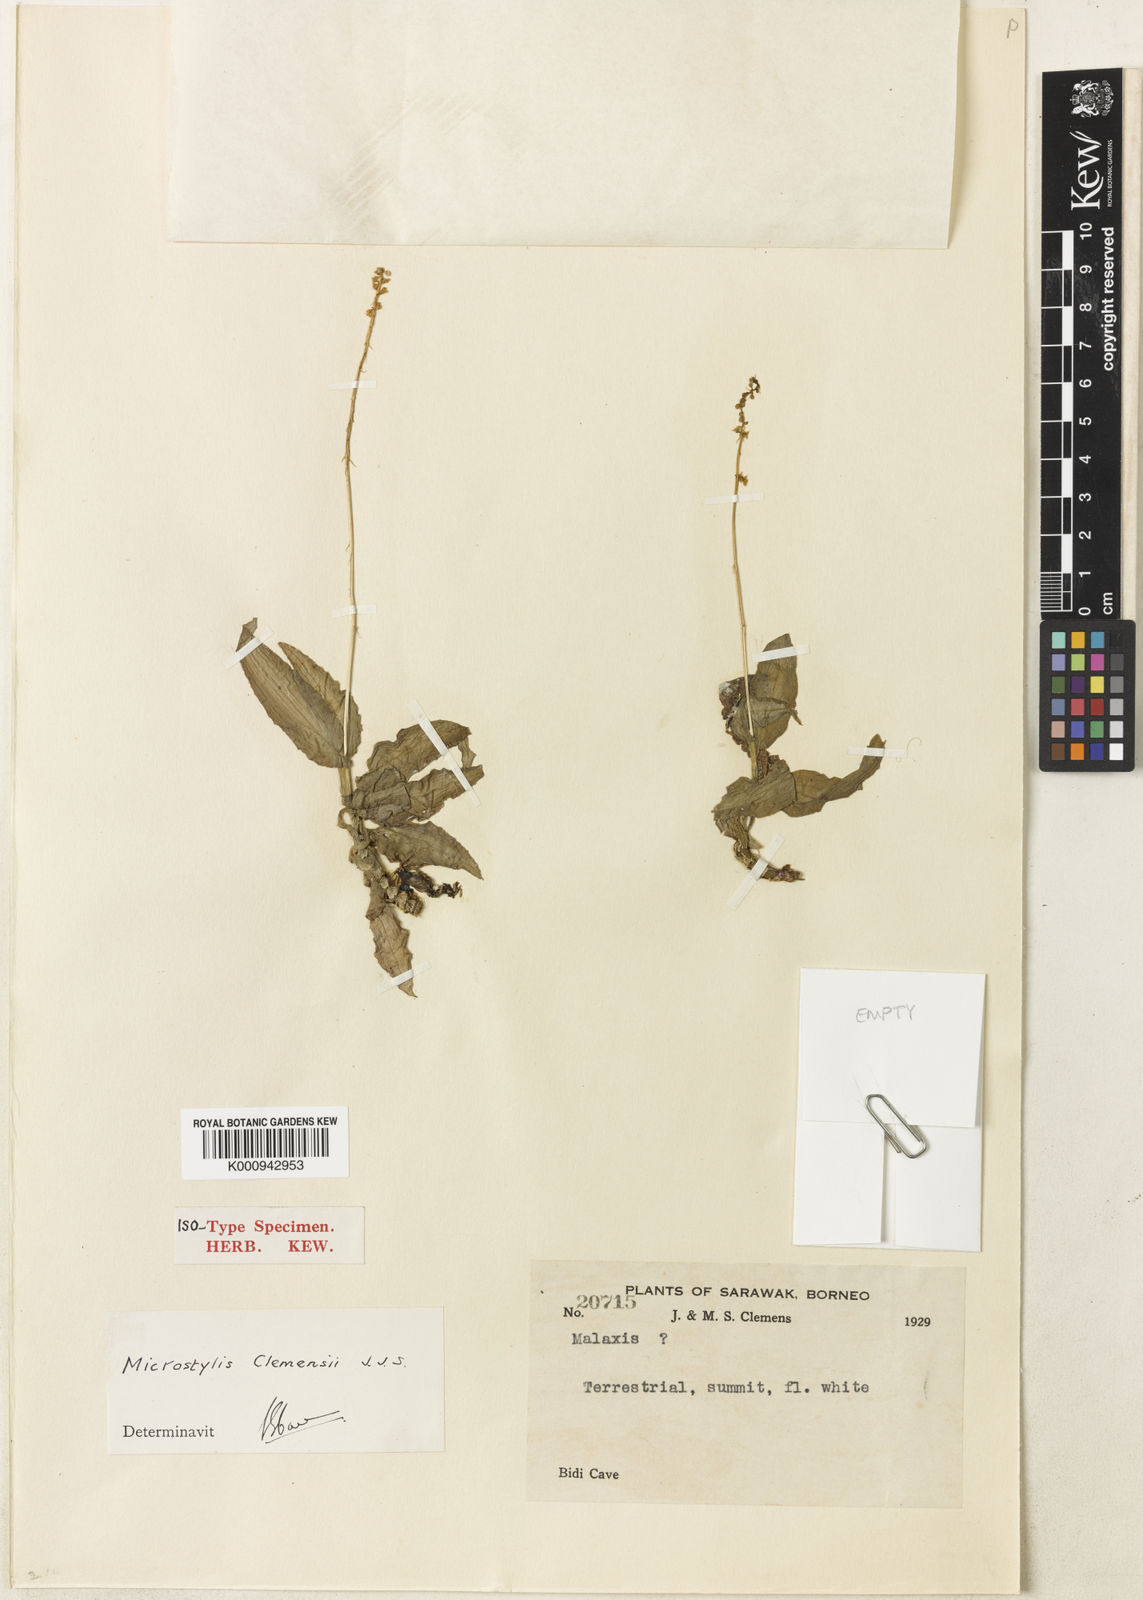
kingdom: Plantae
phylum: Tracheophyta
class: Liliopsida
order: Asparagales
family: Orchidaceae
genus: Crepidium
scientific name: Crepidium clemensii
